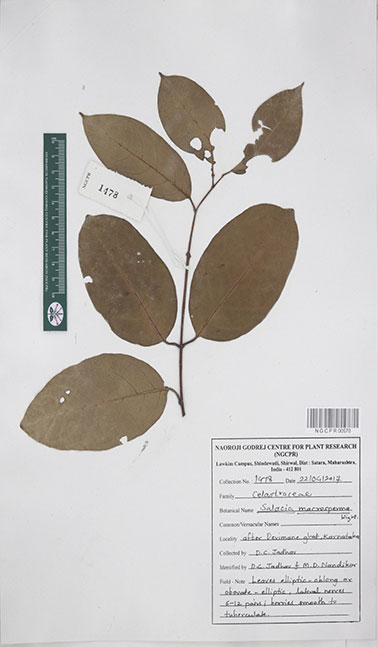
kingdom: Plantae
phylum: Tracheophyta
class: Magnoliopsida
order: Celastrales
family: Celastraceae
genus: Salacia
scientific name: Salacia macrosperma
